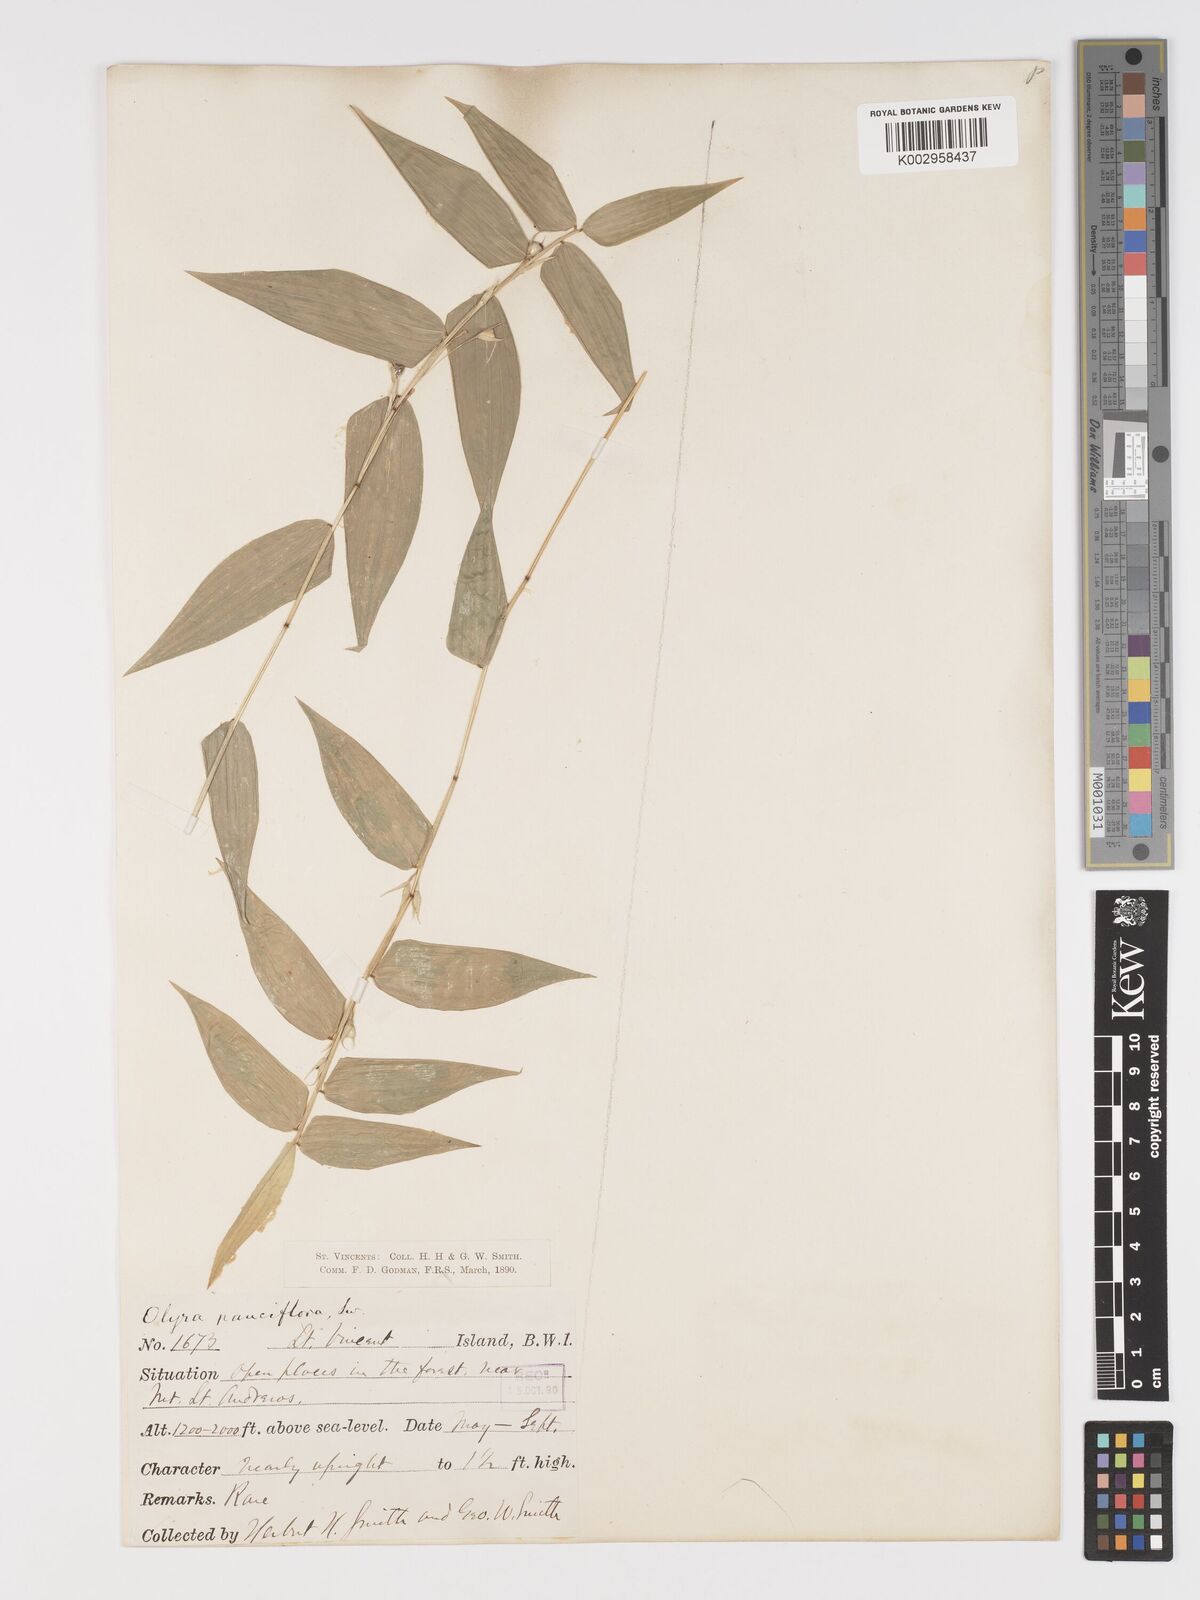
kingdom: Plantae
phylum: Tracheophyta
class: Liliopsida
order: Poales
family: Poaceae
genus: Lithachne
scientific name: Lithachne pauciflora
